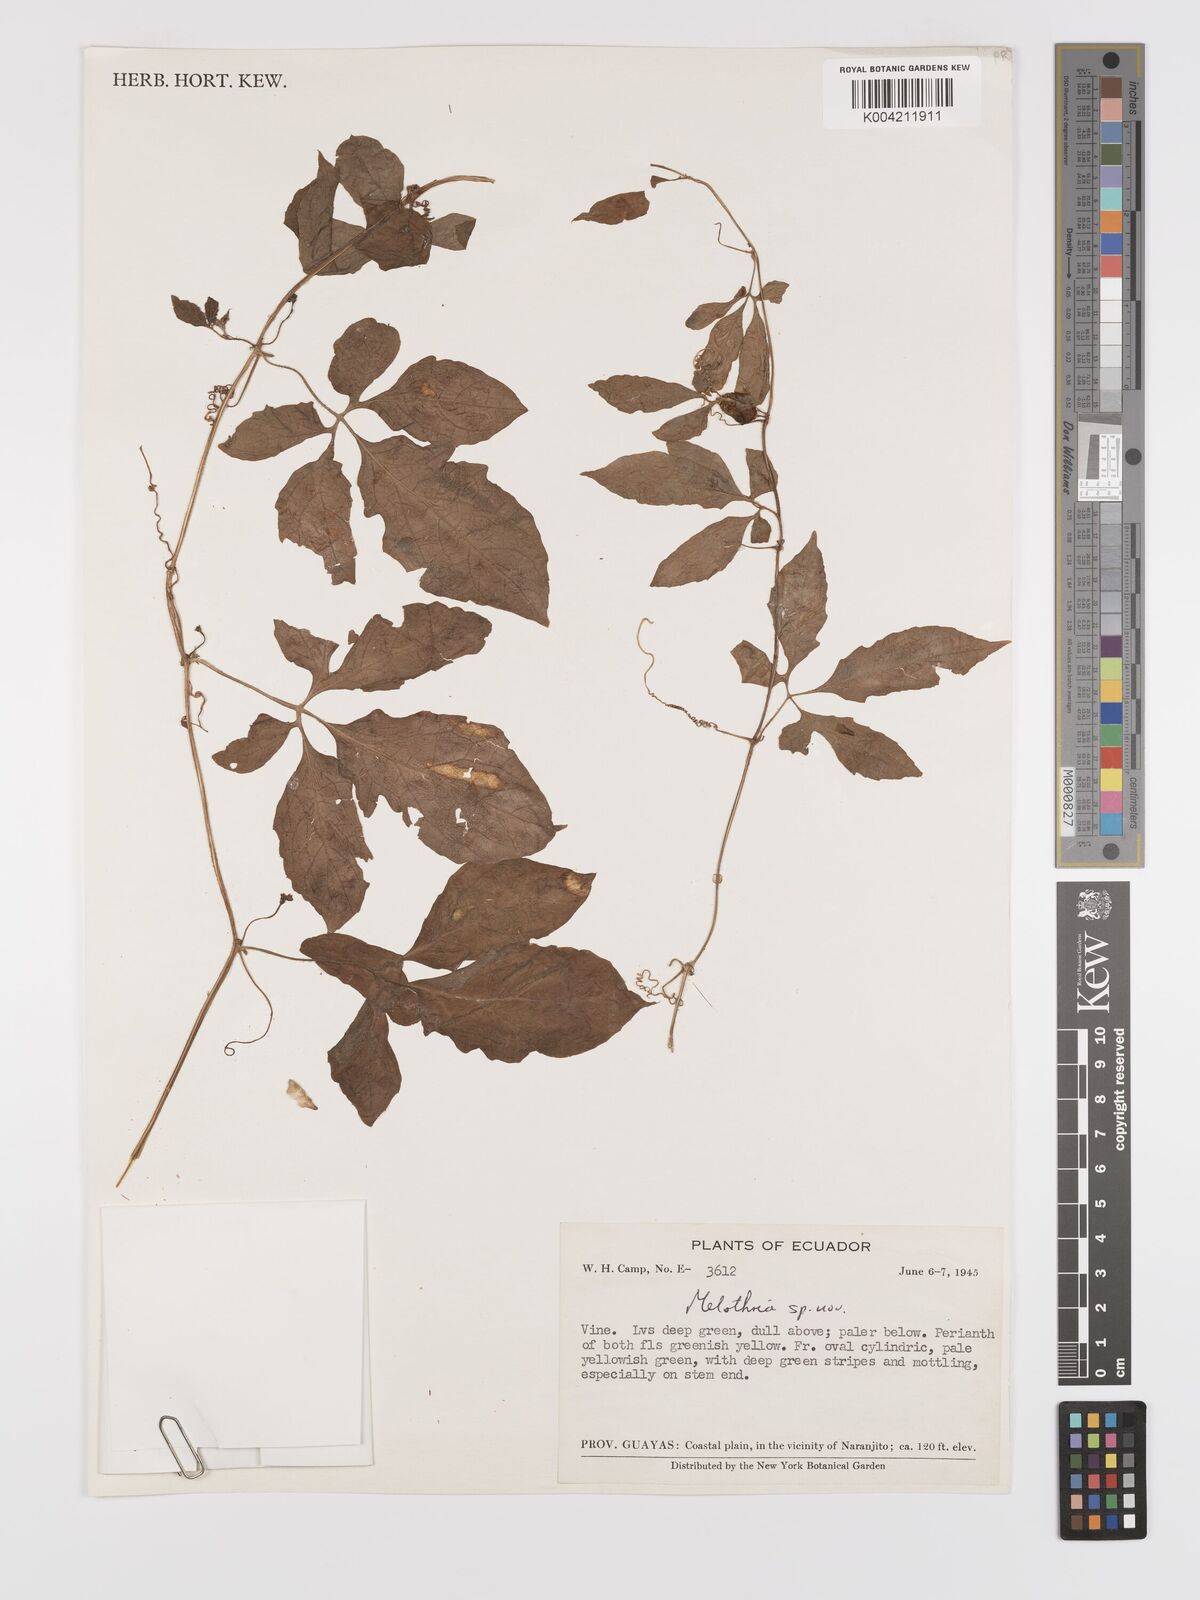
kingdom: Plantae
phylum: Tracheophyta
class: Magnoliopsida
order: Cucurbitales
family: Cucurbitaceae
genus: Melothria
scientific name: Melothria
